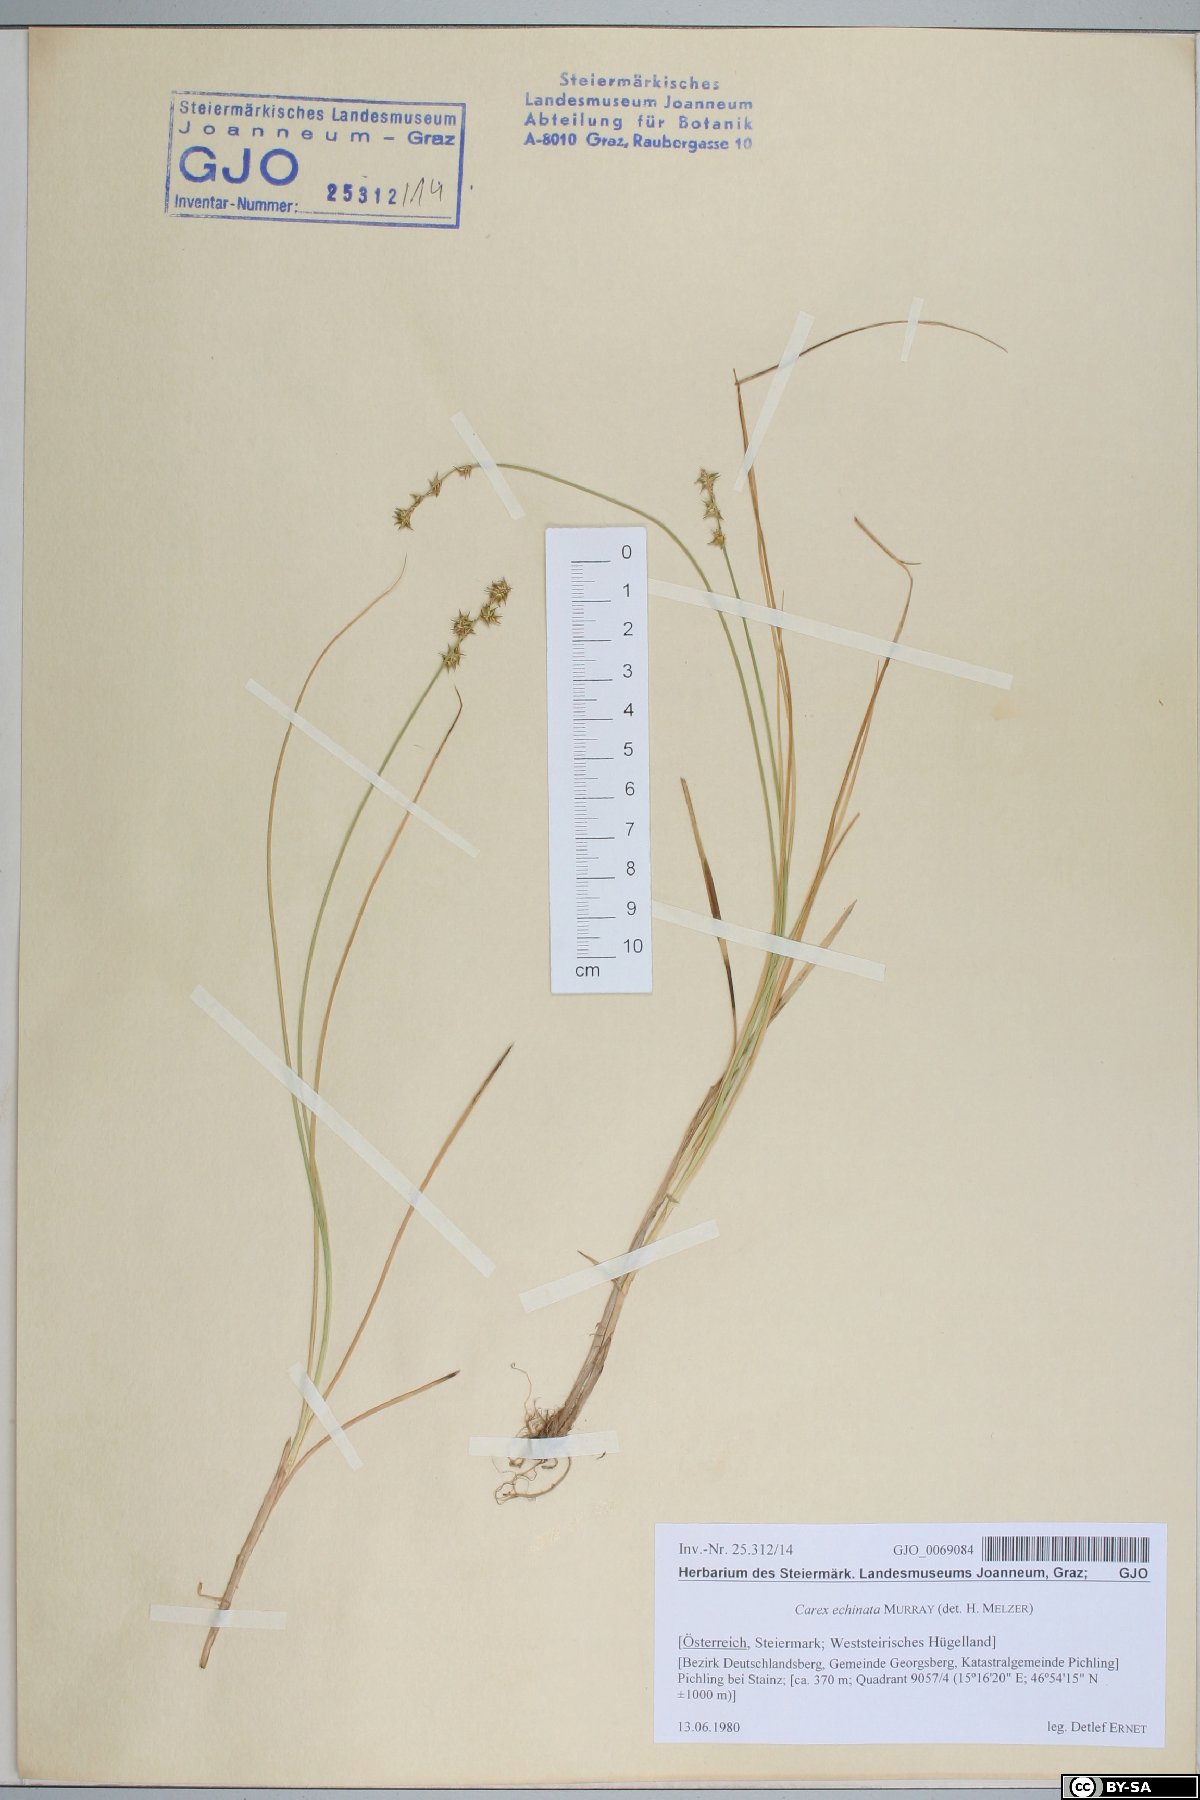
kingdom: Plantae
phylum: Tracheophyta
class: Liliopsida
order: Poales
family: Cyperaceae
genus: Carex
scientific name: Carex echinata
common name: Star sedge
